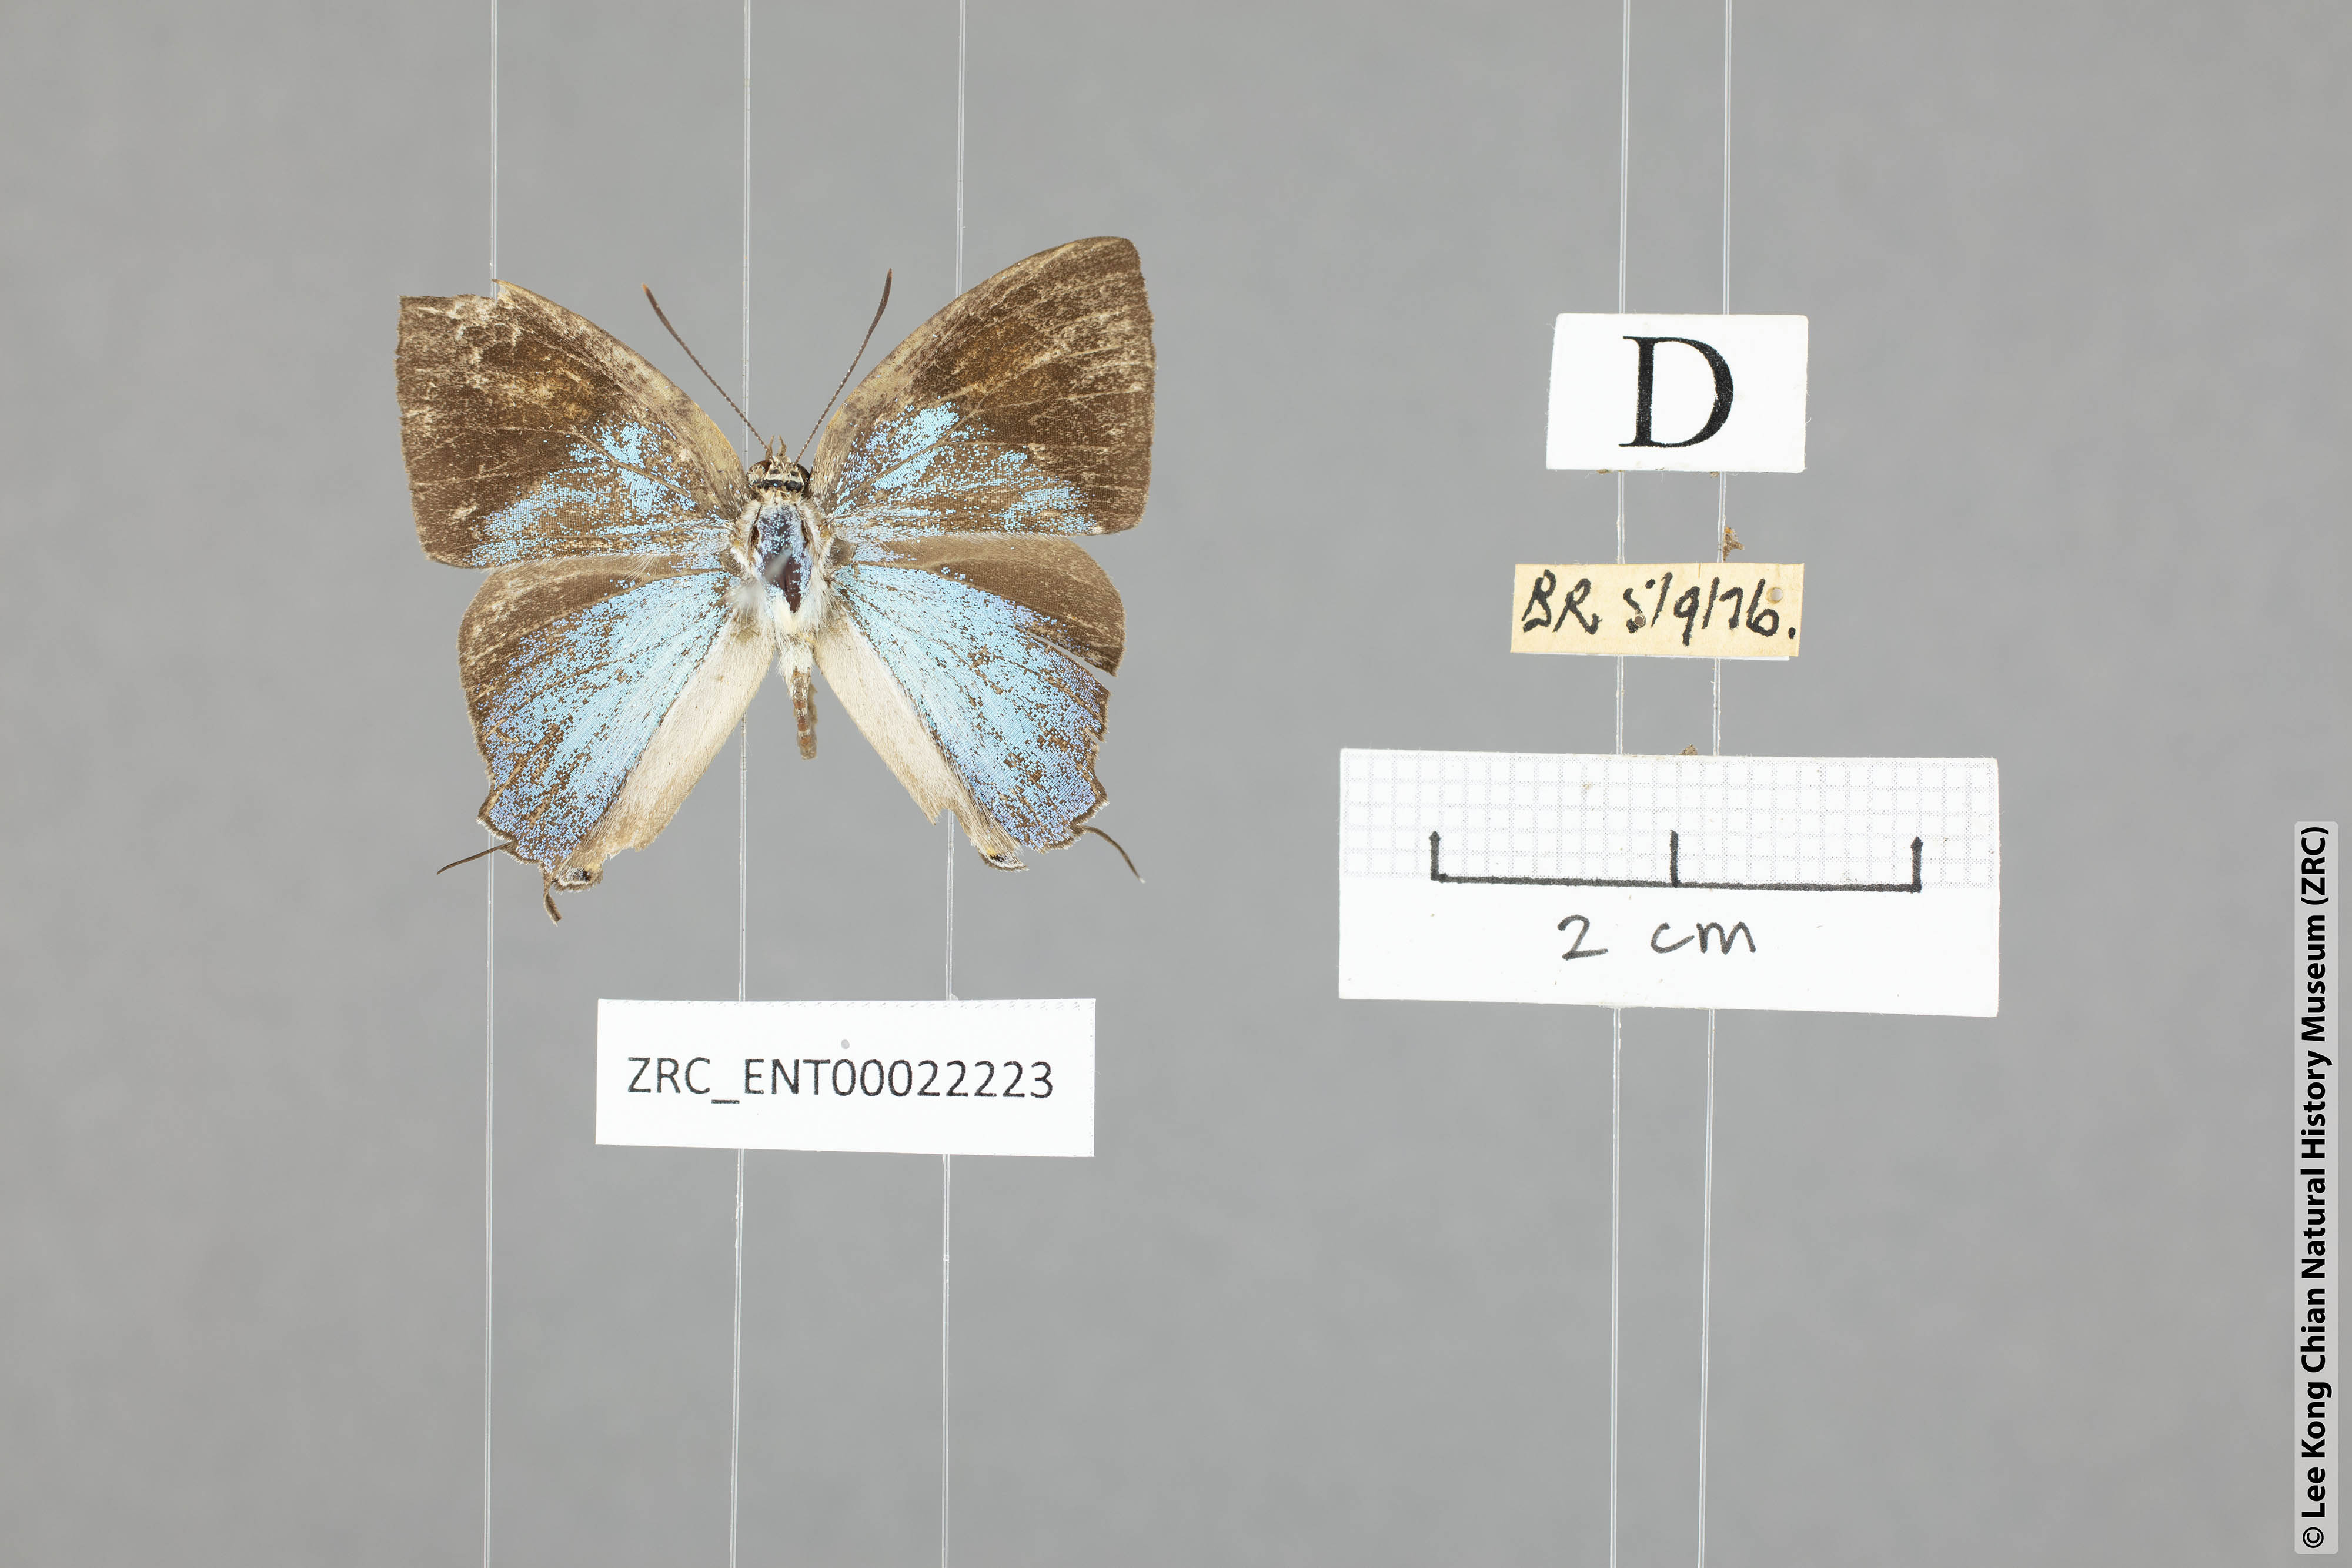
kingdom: Animalia
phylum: Arthropoda
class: Insecta
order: Lepidoptera
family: Lycaenidae
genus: Tajuria
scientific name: Tajuria mantra
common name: Felder's royal
